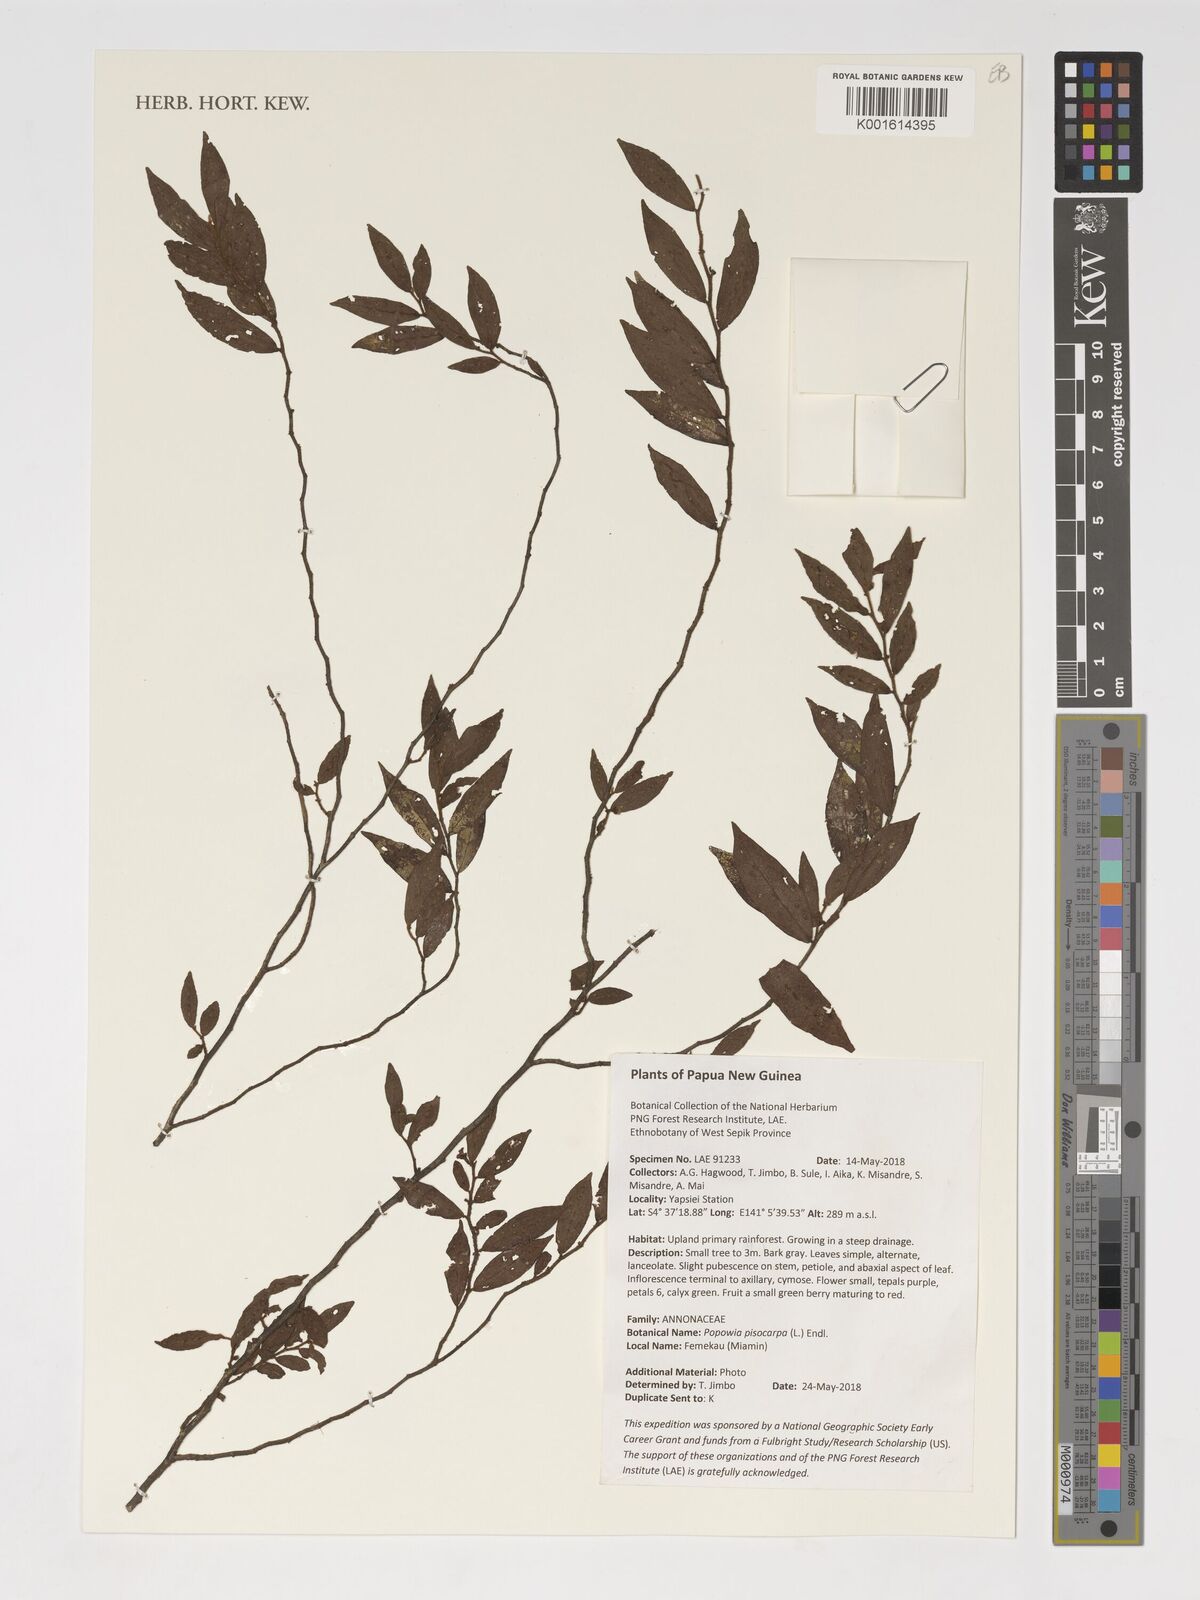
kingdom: Plantae
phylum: Tracheophyta
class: Magnoliopsida
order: Magnoliales
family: Annonaceae
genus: Popowia
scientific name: Popowia pisocarpa
